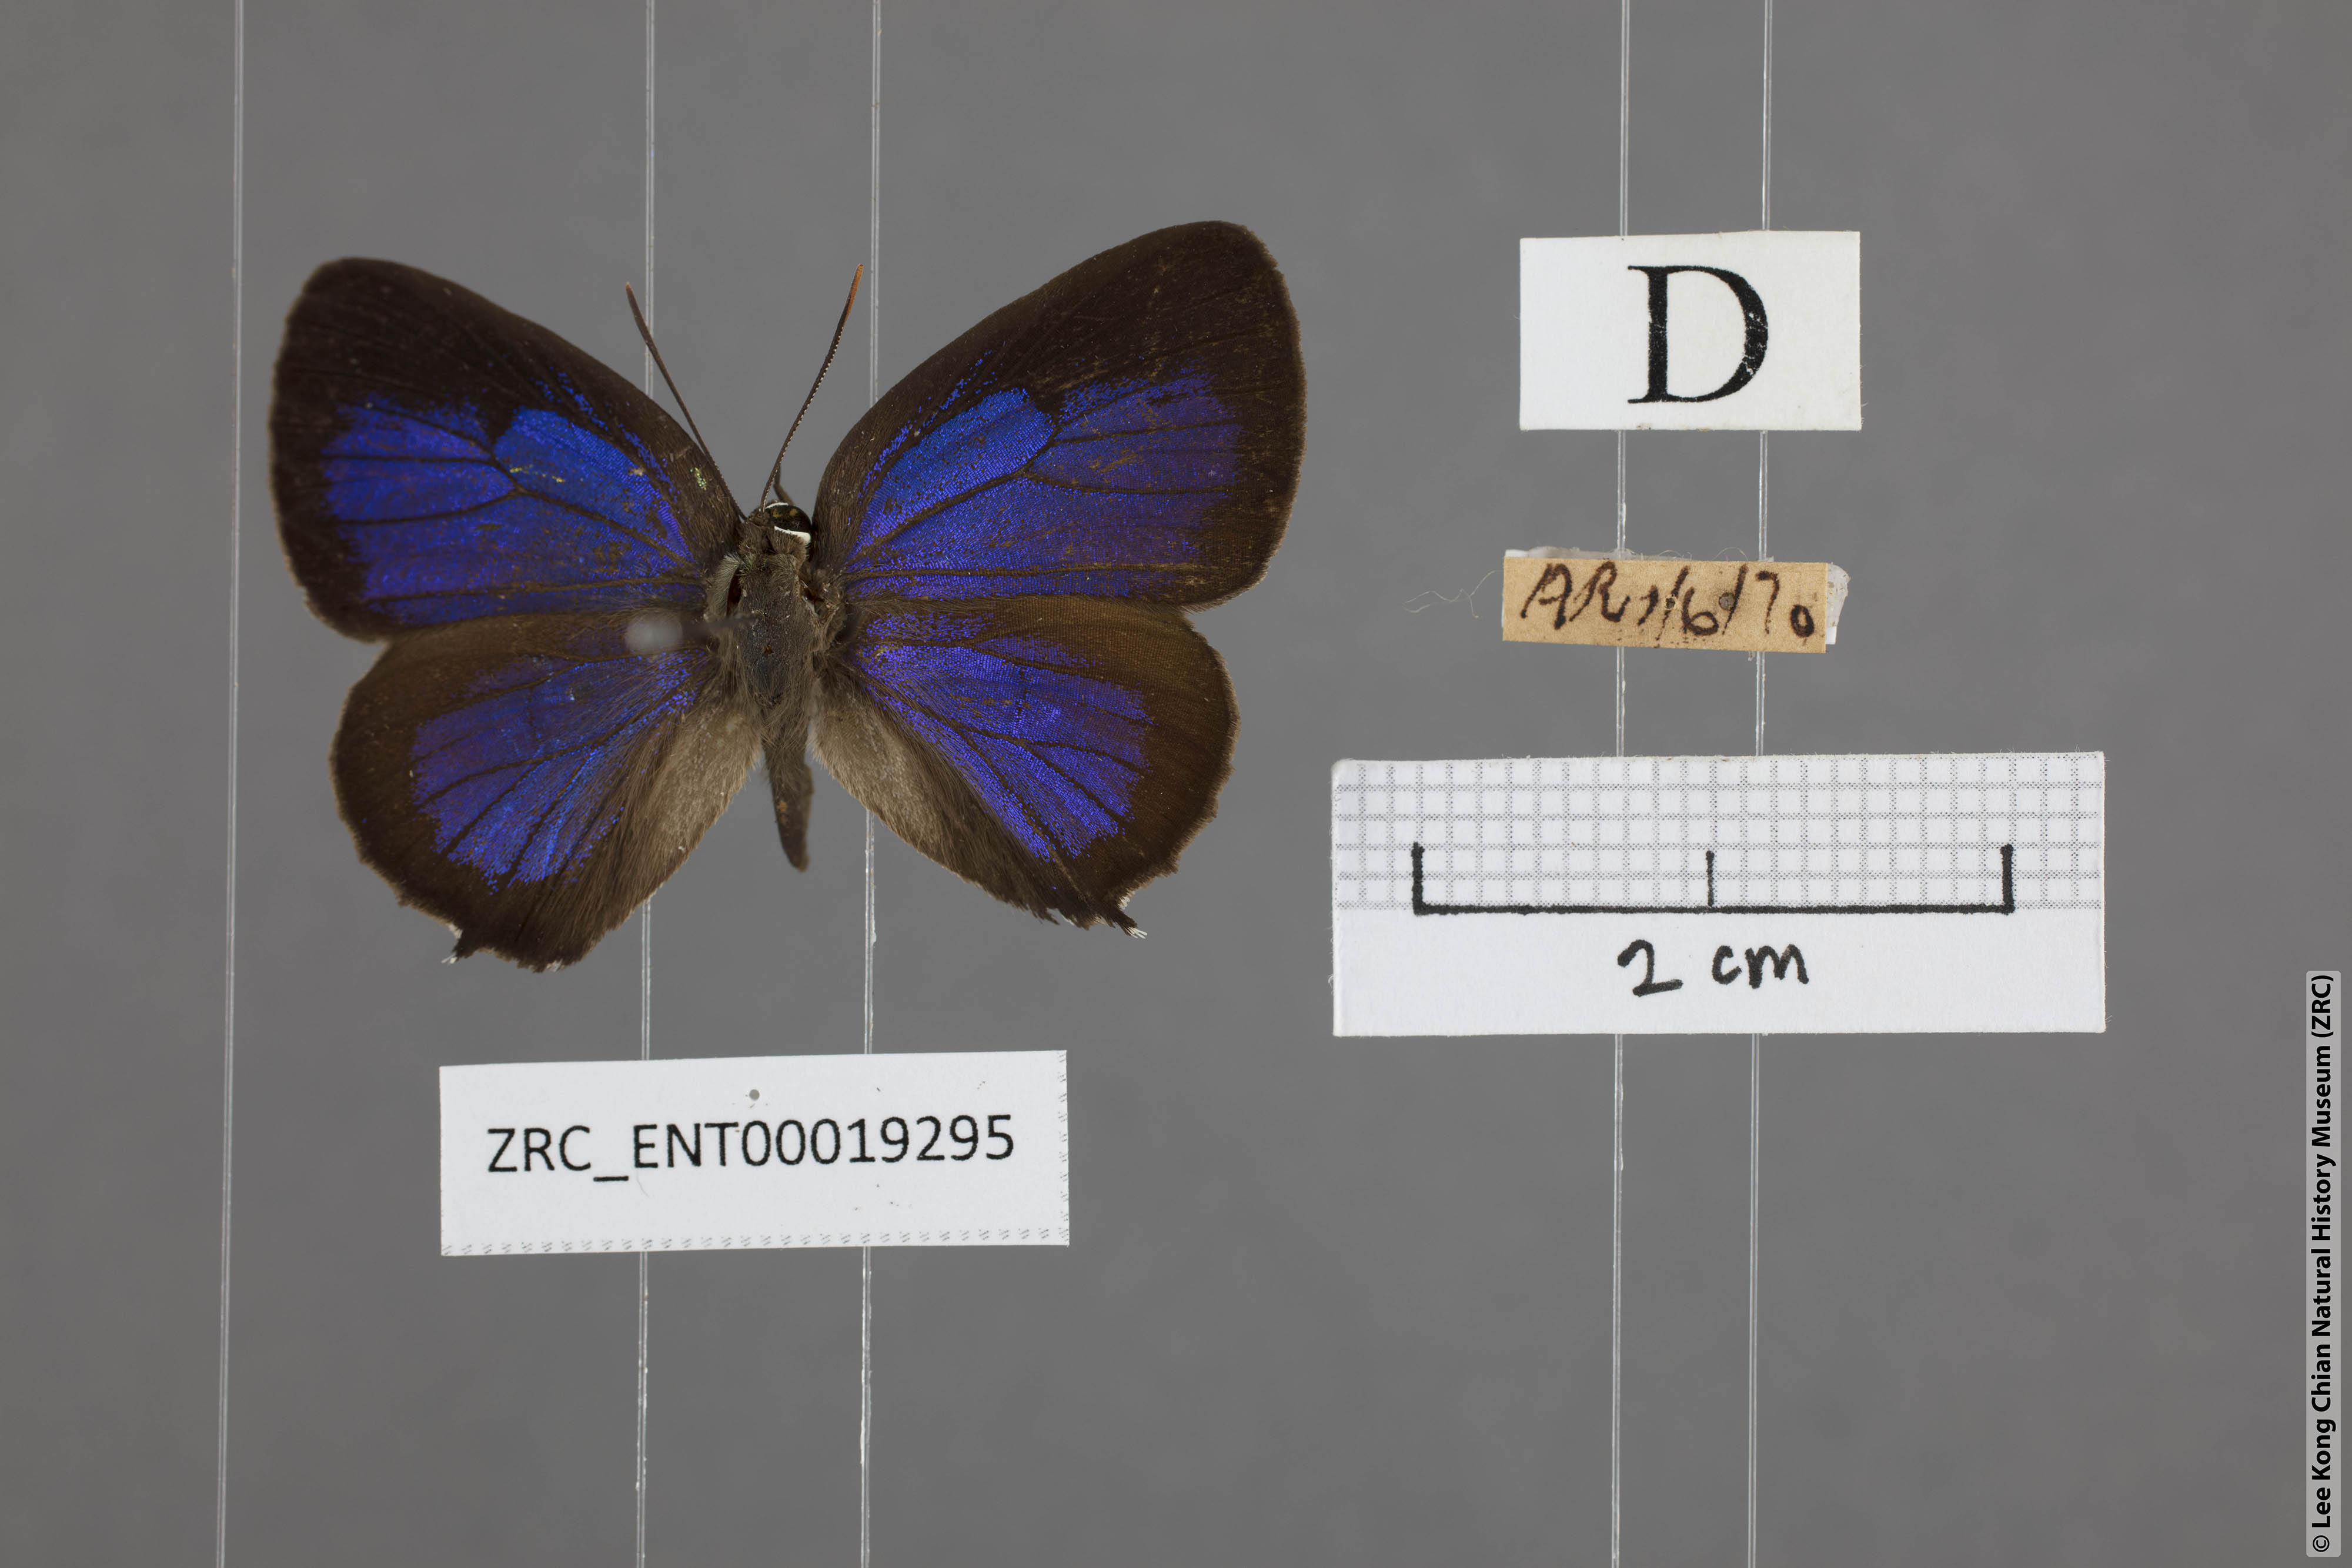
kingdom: Animalia
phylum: Arthropoda
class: Insecta
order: Lepidoptera
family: Lycaenidae
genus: Arhopala
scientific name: Arhopala aurea
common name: Long-celled oakblue
